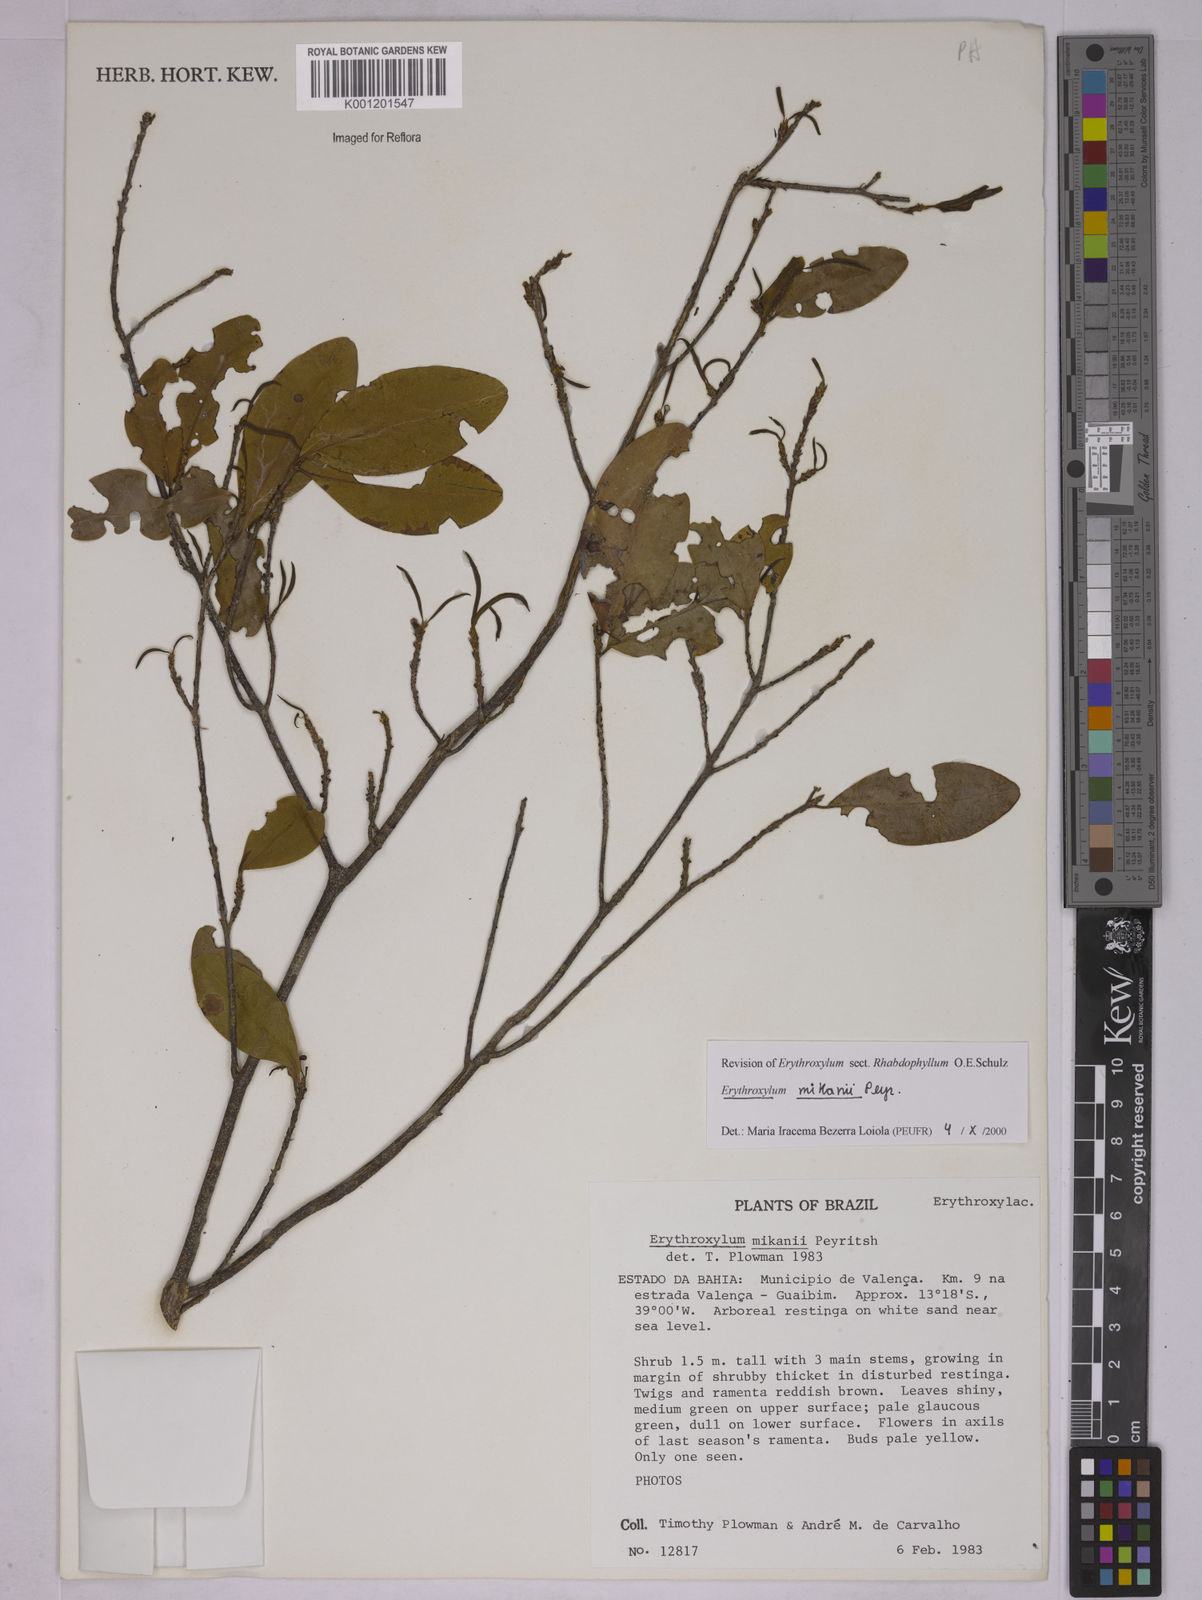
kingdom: Plantae
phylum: Tracheophyta
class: Magnoliopsida
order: Malpighiales
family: Erythroxylaceae
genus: Erythroxylum
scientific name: Erythroxylum mikanii
